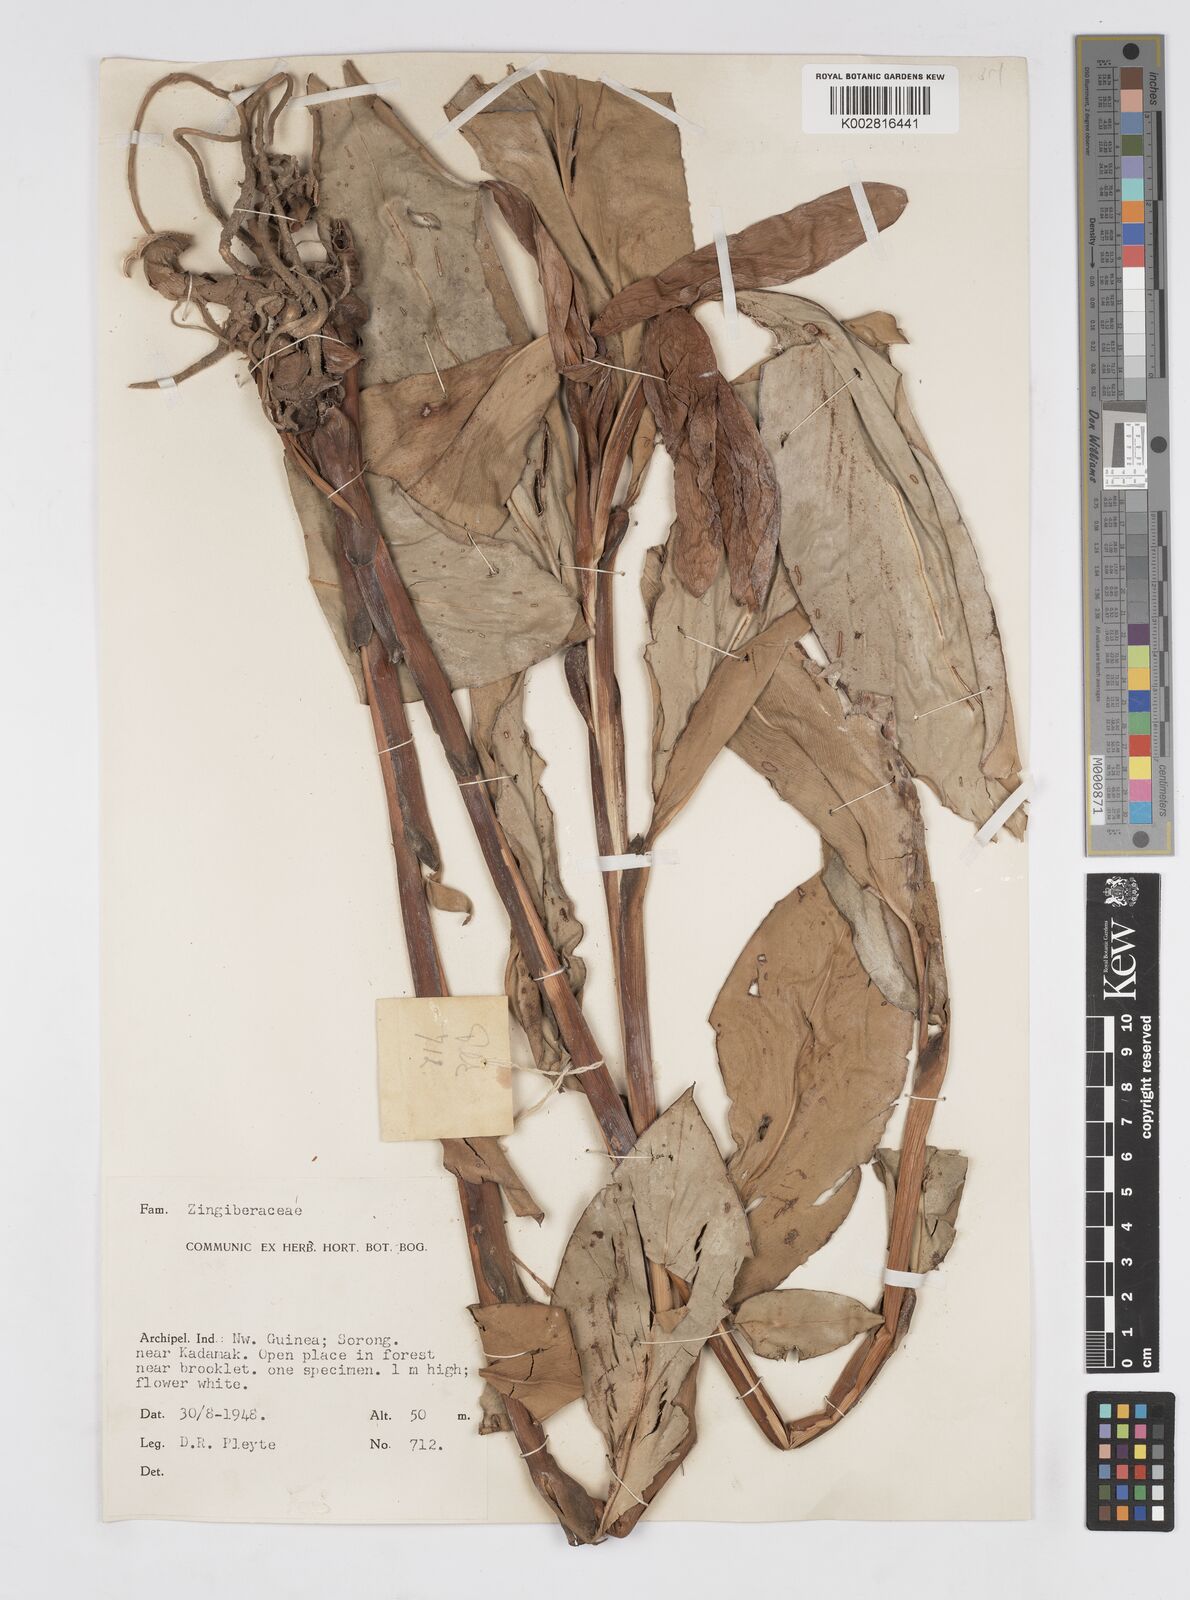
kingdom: Plantae
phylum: Tracheophyta
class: Liliopsida
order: Zingiberales
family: Zingiberaceae
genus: Alpinia
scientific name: Alpinia
